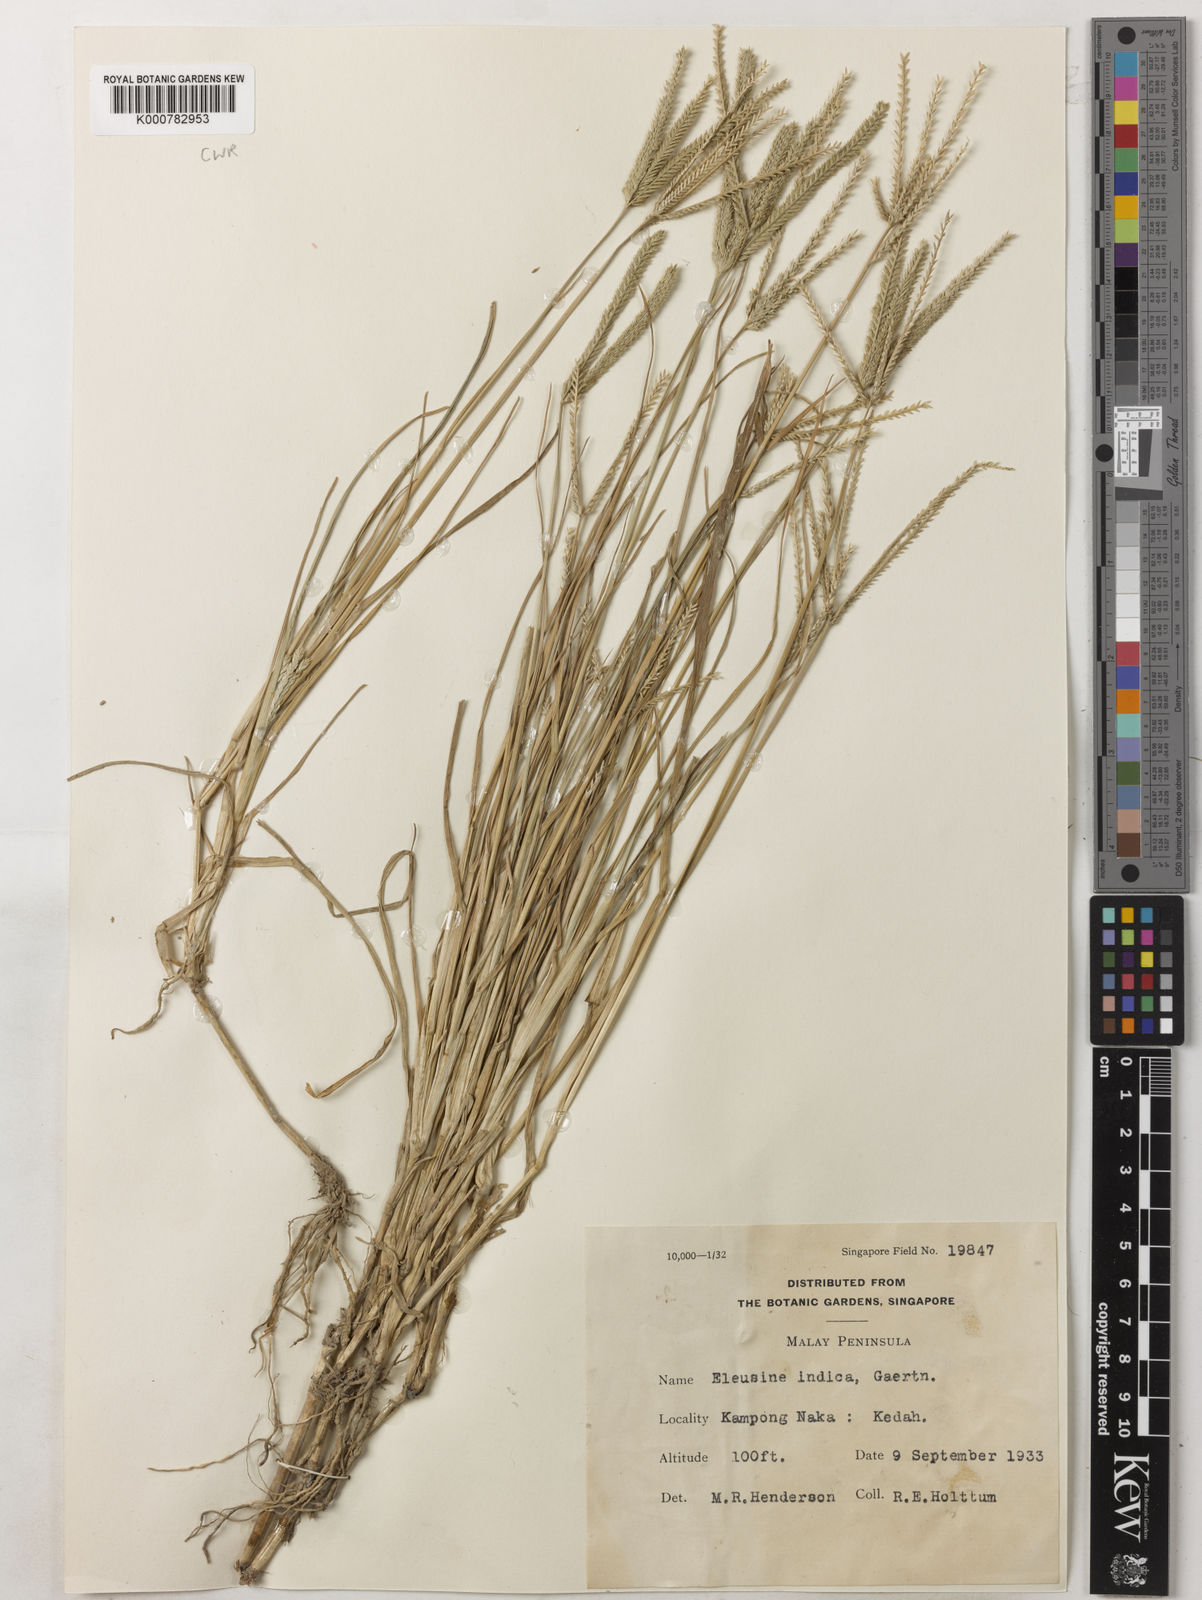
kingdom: Plantae
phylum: Tracheophyta
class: Liliopsida
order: Poales
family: Poaceae
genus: Eleusine
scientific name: Eleusine indica
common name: Yard-grass
